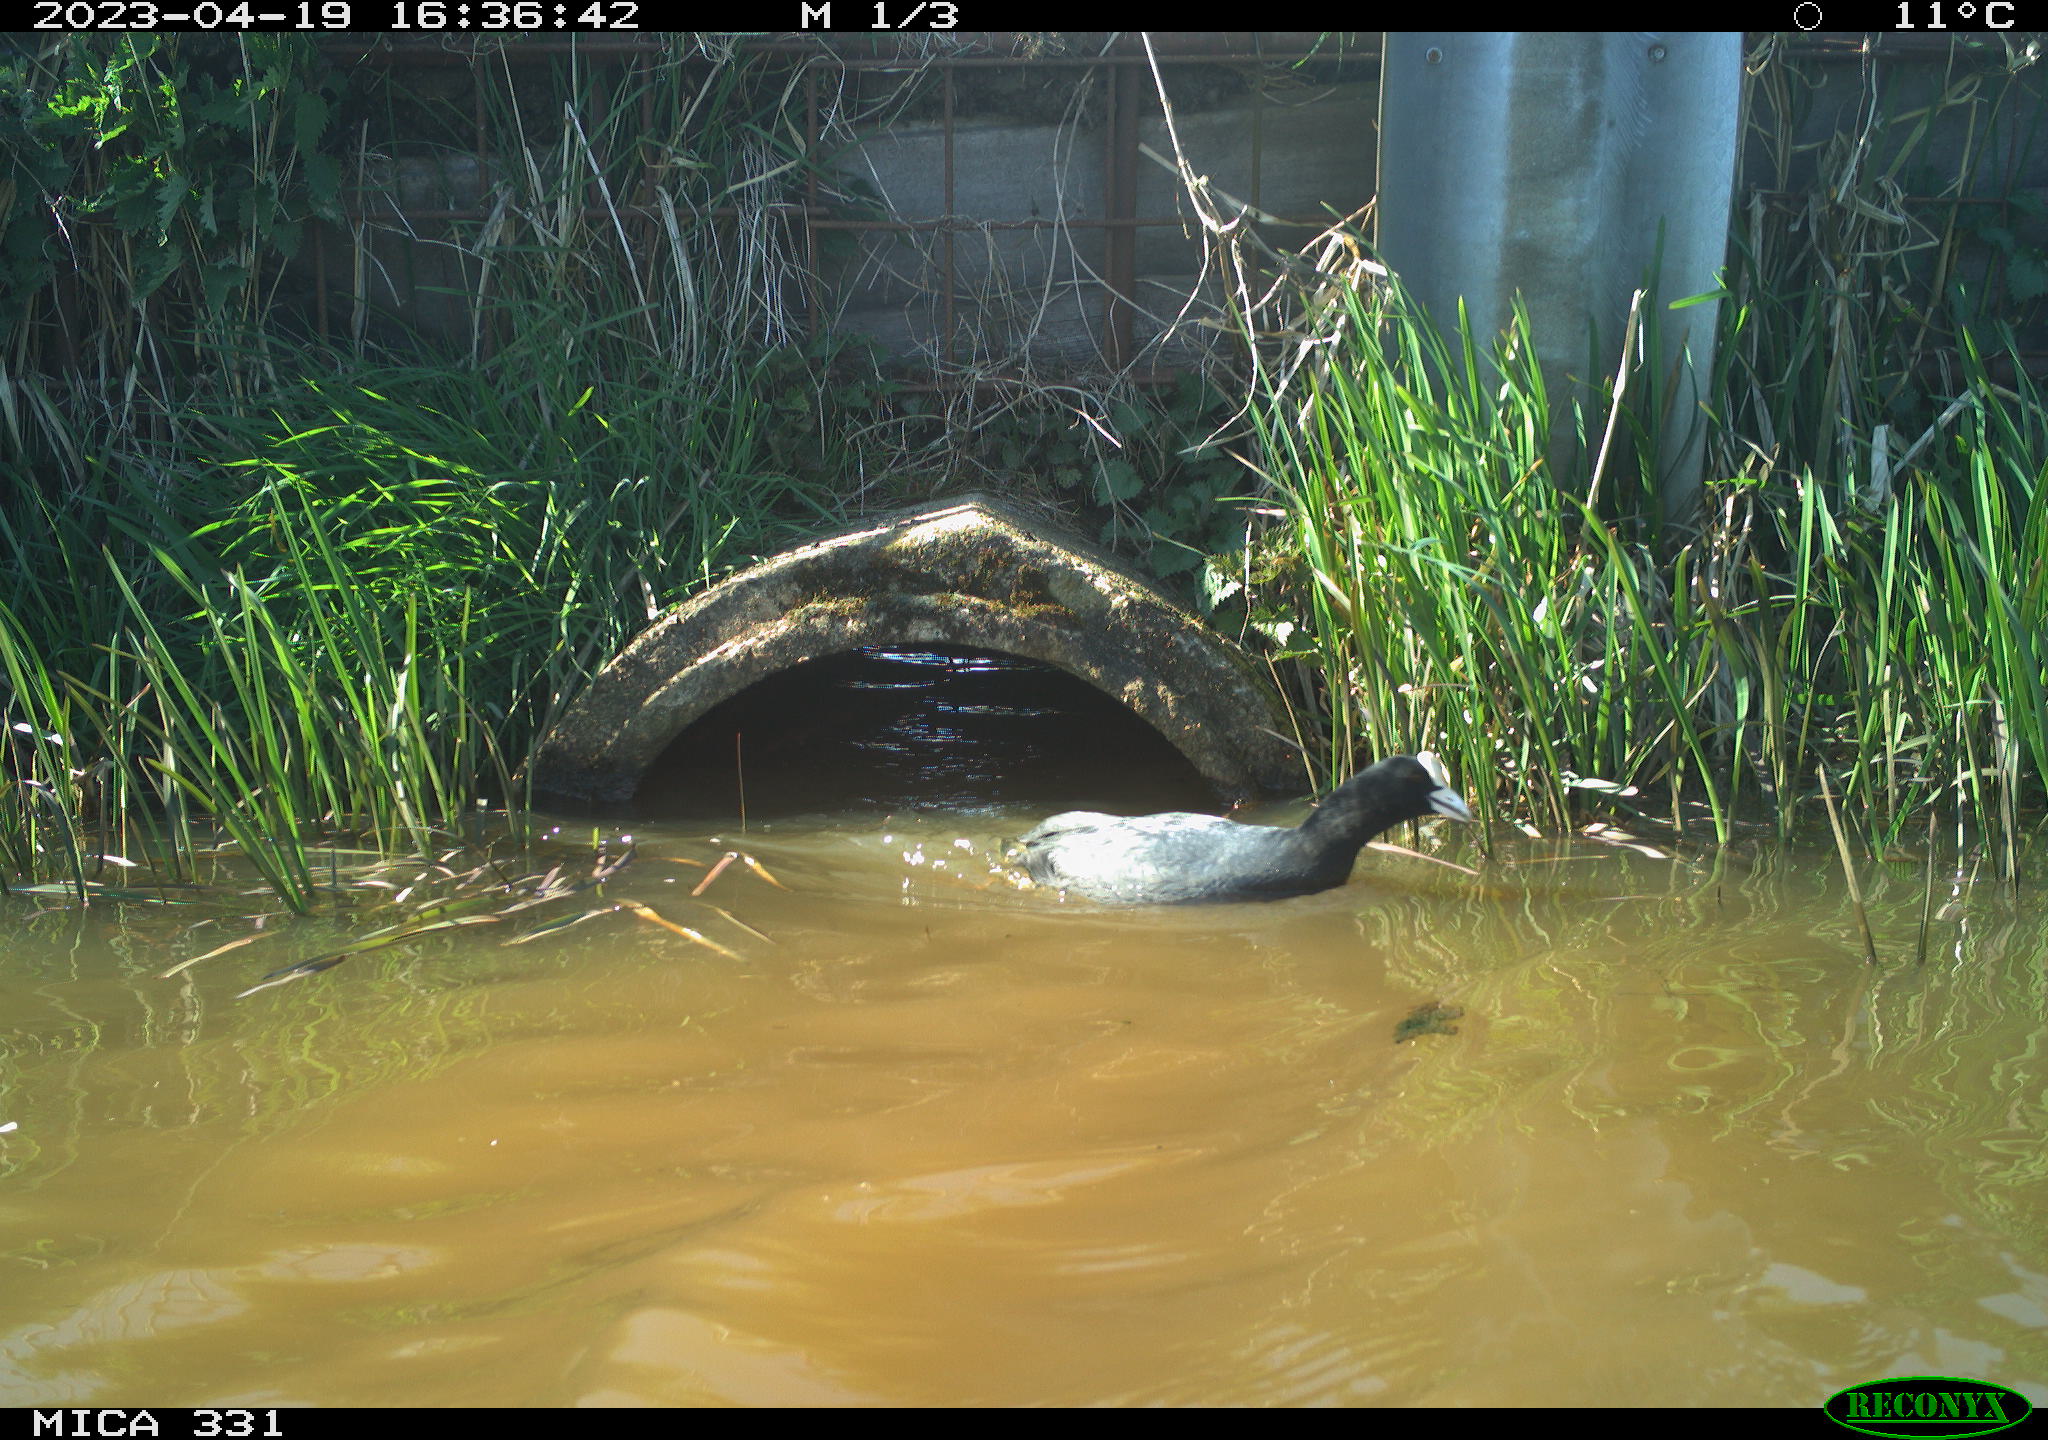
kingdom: Animalia
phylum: Chordata
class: Aves
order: Gruiformes
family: Rallidae
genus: Gallinula
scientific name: Gallinula chloropus
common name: Common moorhen
